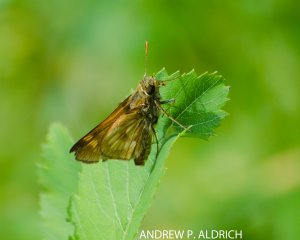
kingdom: Animalia
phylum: Arthropoda
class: Insecta
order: Lepidoptera
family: Hesperiidae
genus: Polites
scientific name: Polites
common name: Long Dash Skipper
